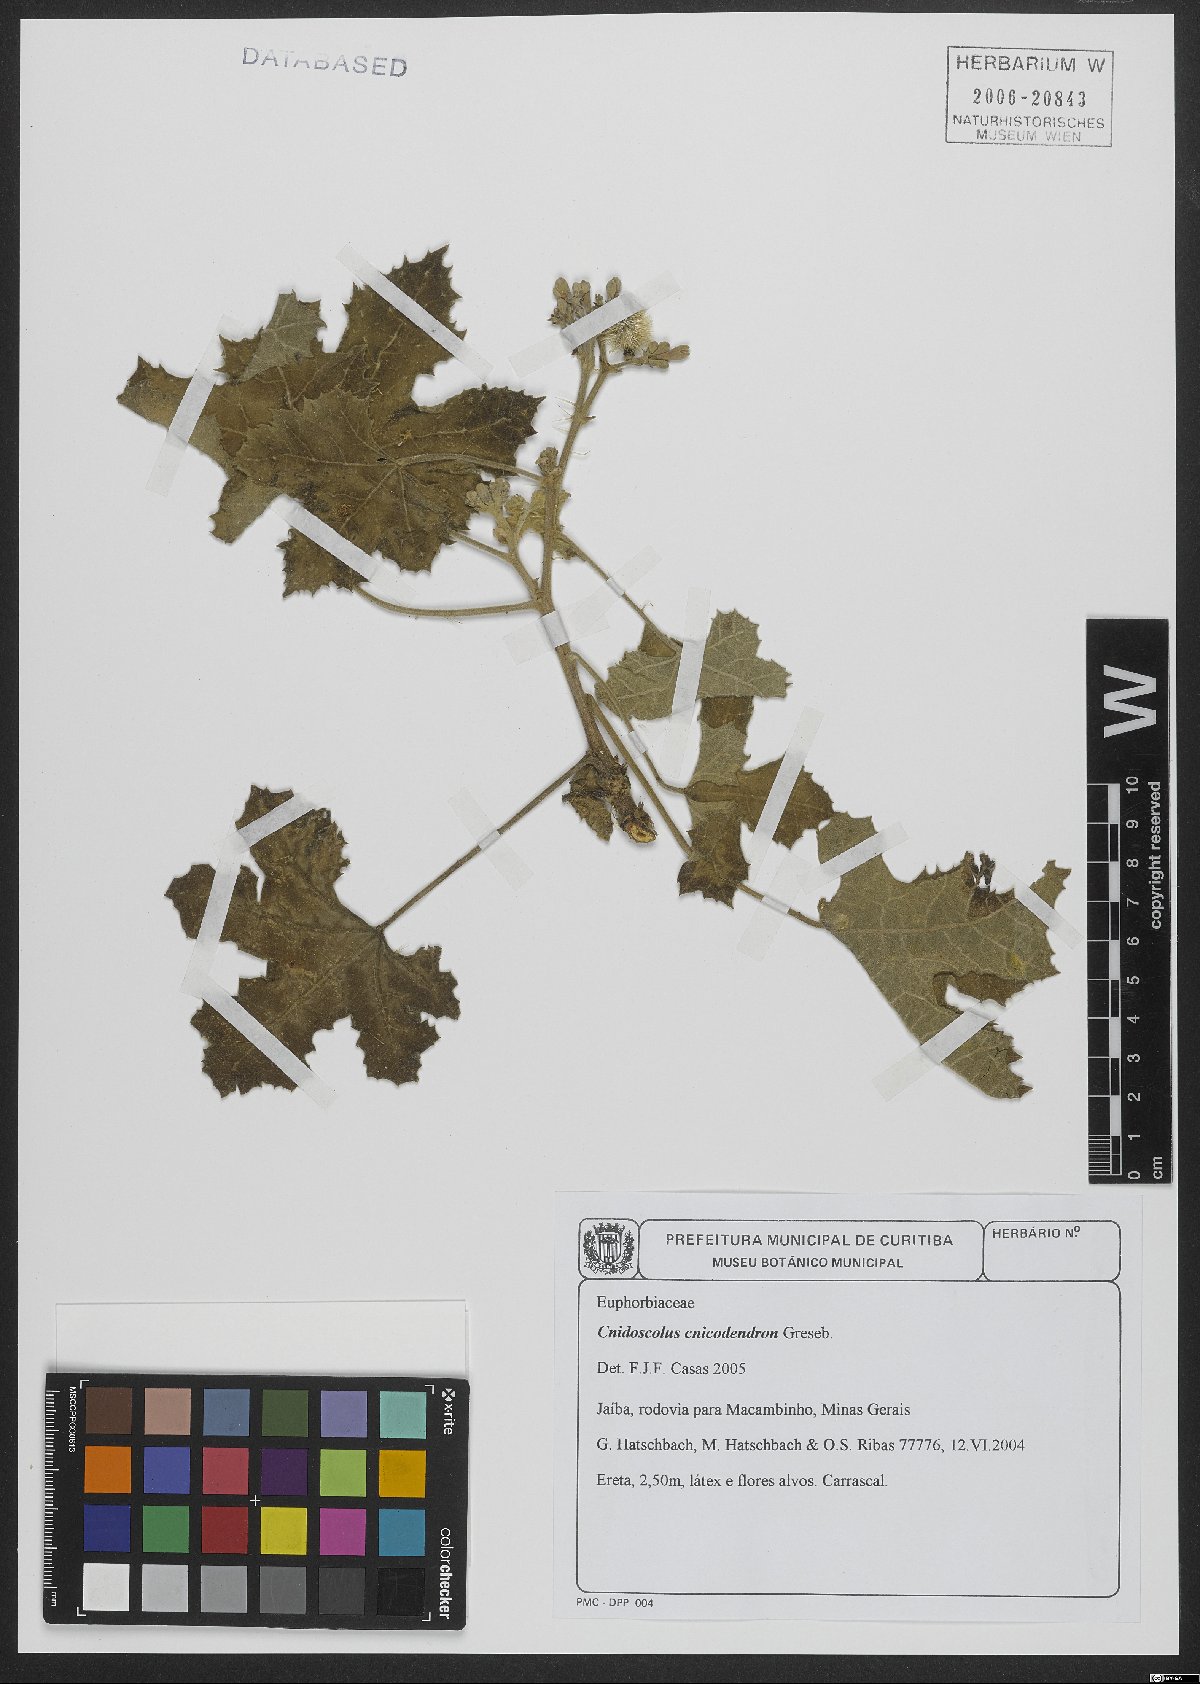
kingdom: Plantae
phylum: Tracheophyta
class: Magnoliopsida
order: Malpighiales
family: Euphorbiaceae
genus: Cnidoscolus
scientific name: Cnidoscolus cnicodendron
